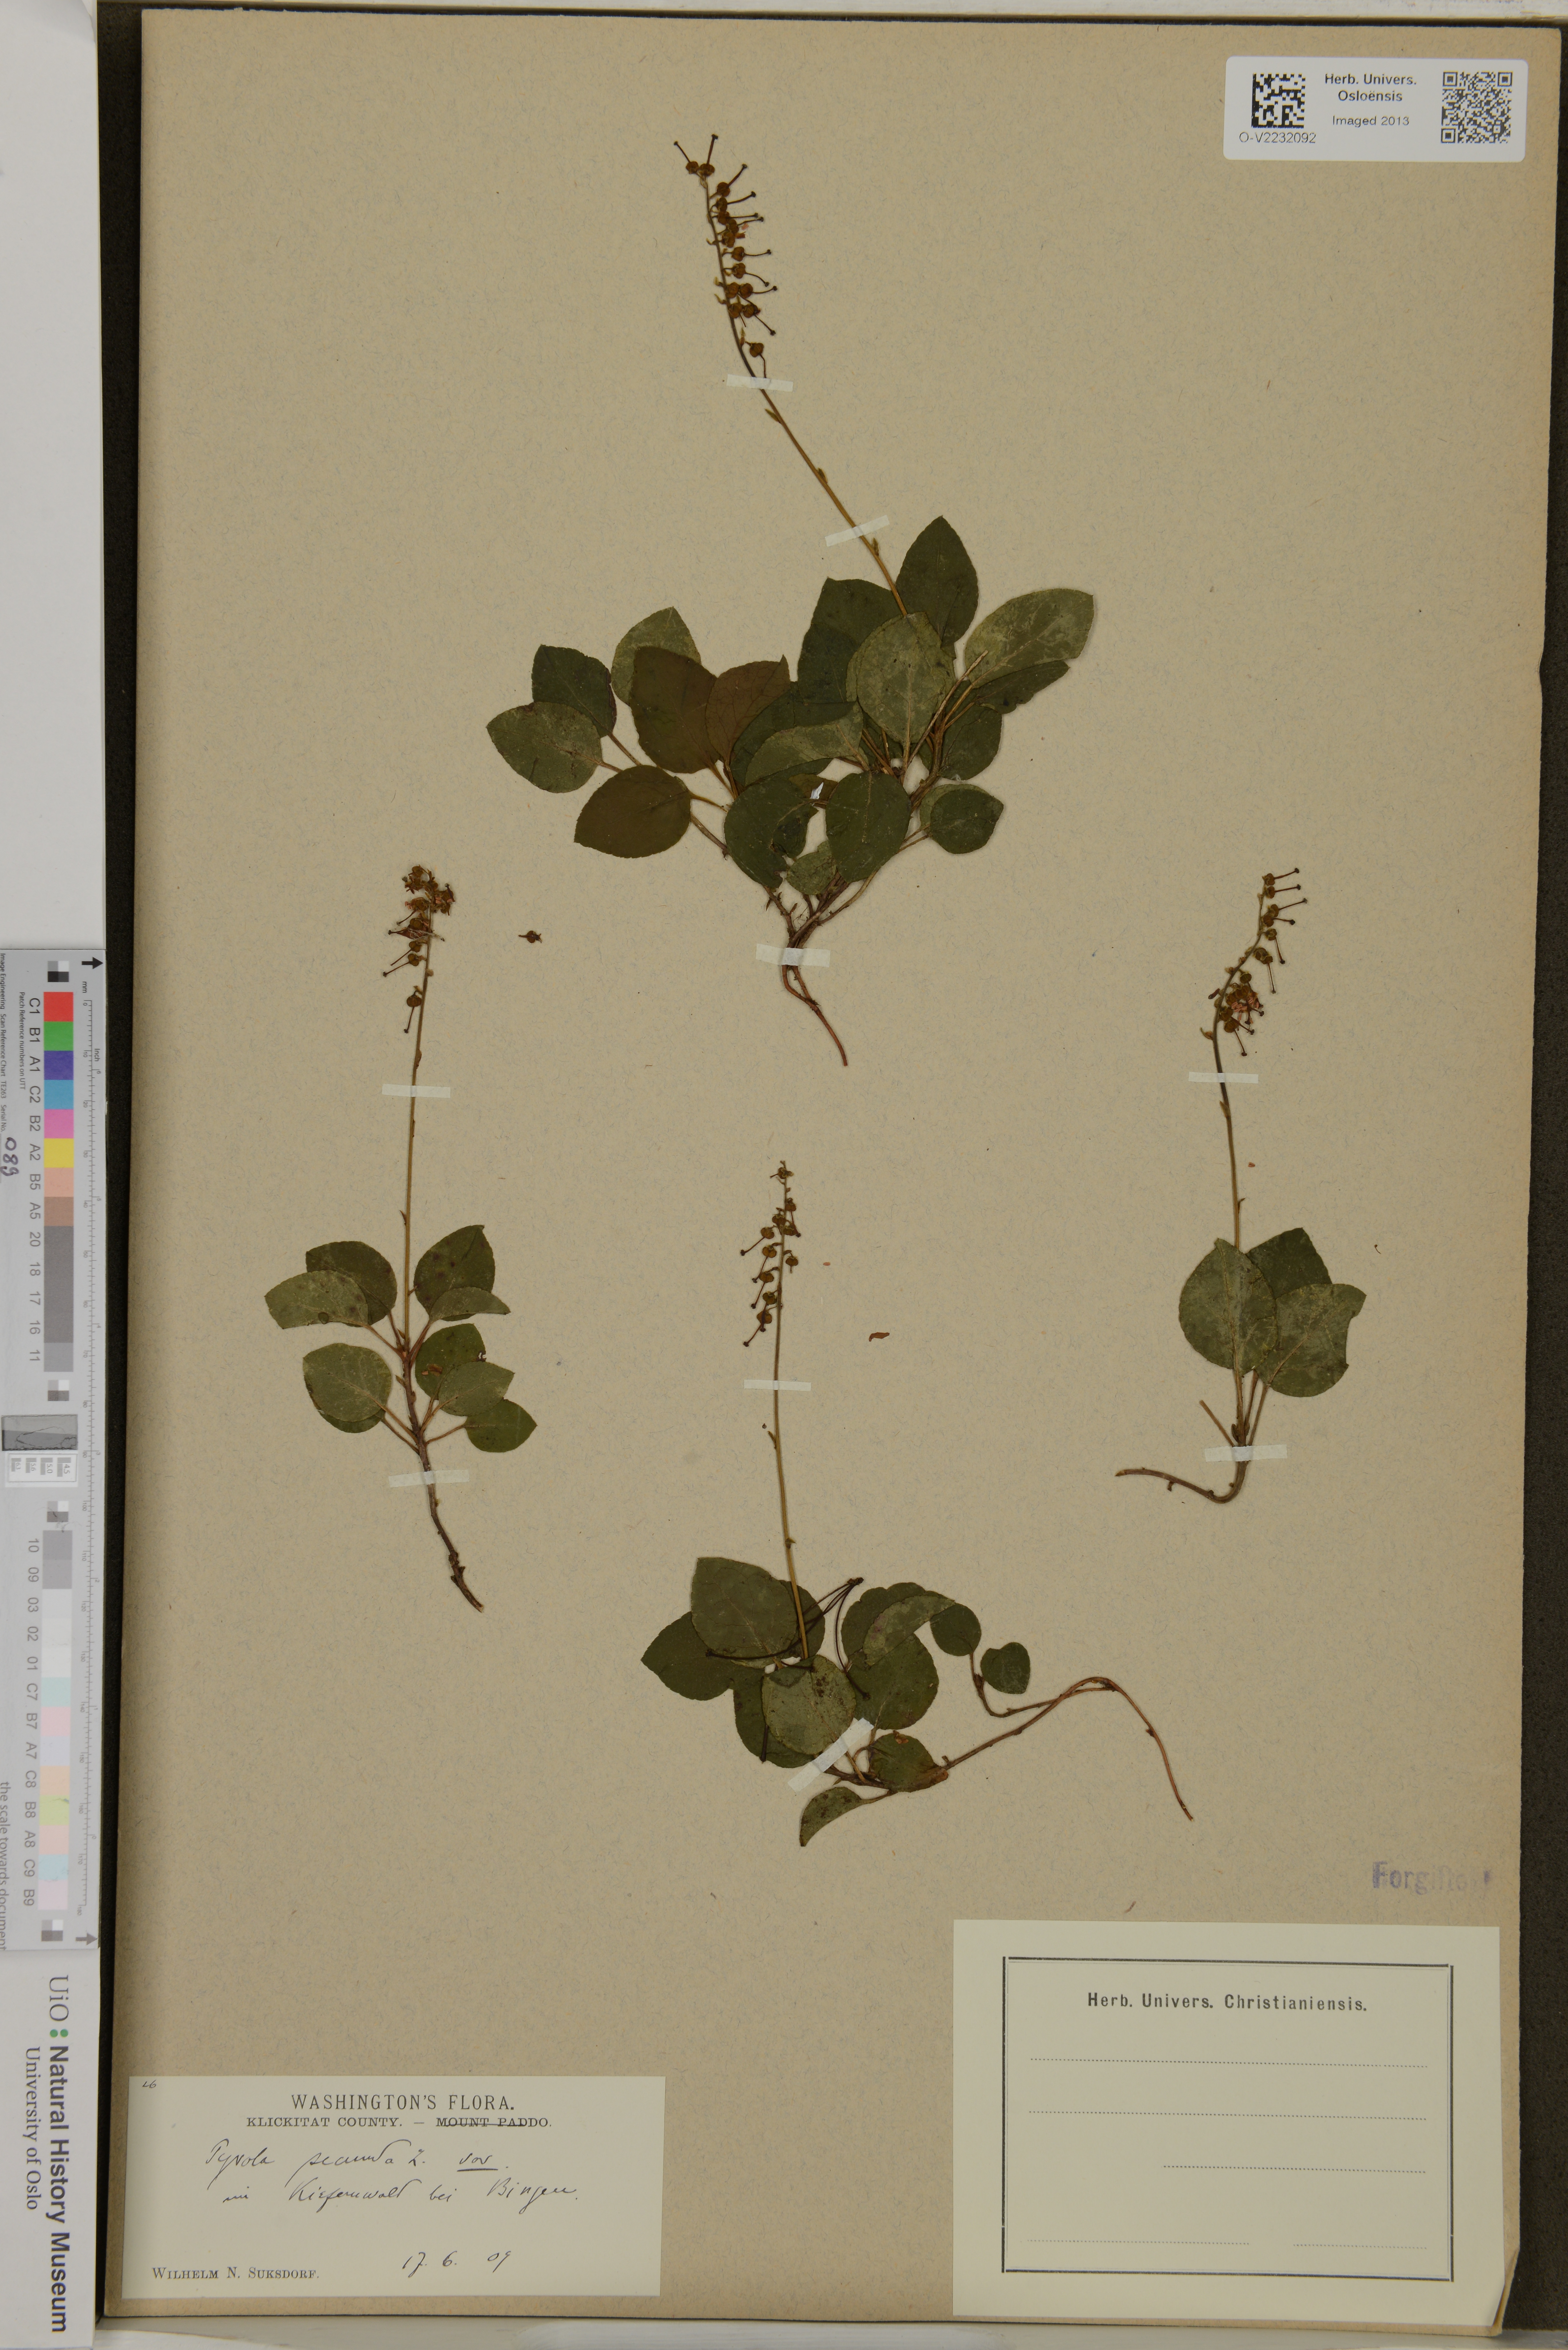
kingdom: Plantae
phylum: Tracheophyta
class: Magnoliopsida
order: Ericales
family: Ericaceae
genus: Orthilia
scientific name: Orthilia secunda
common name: One-sided orthilia
